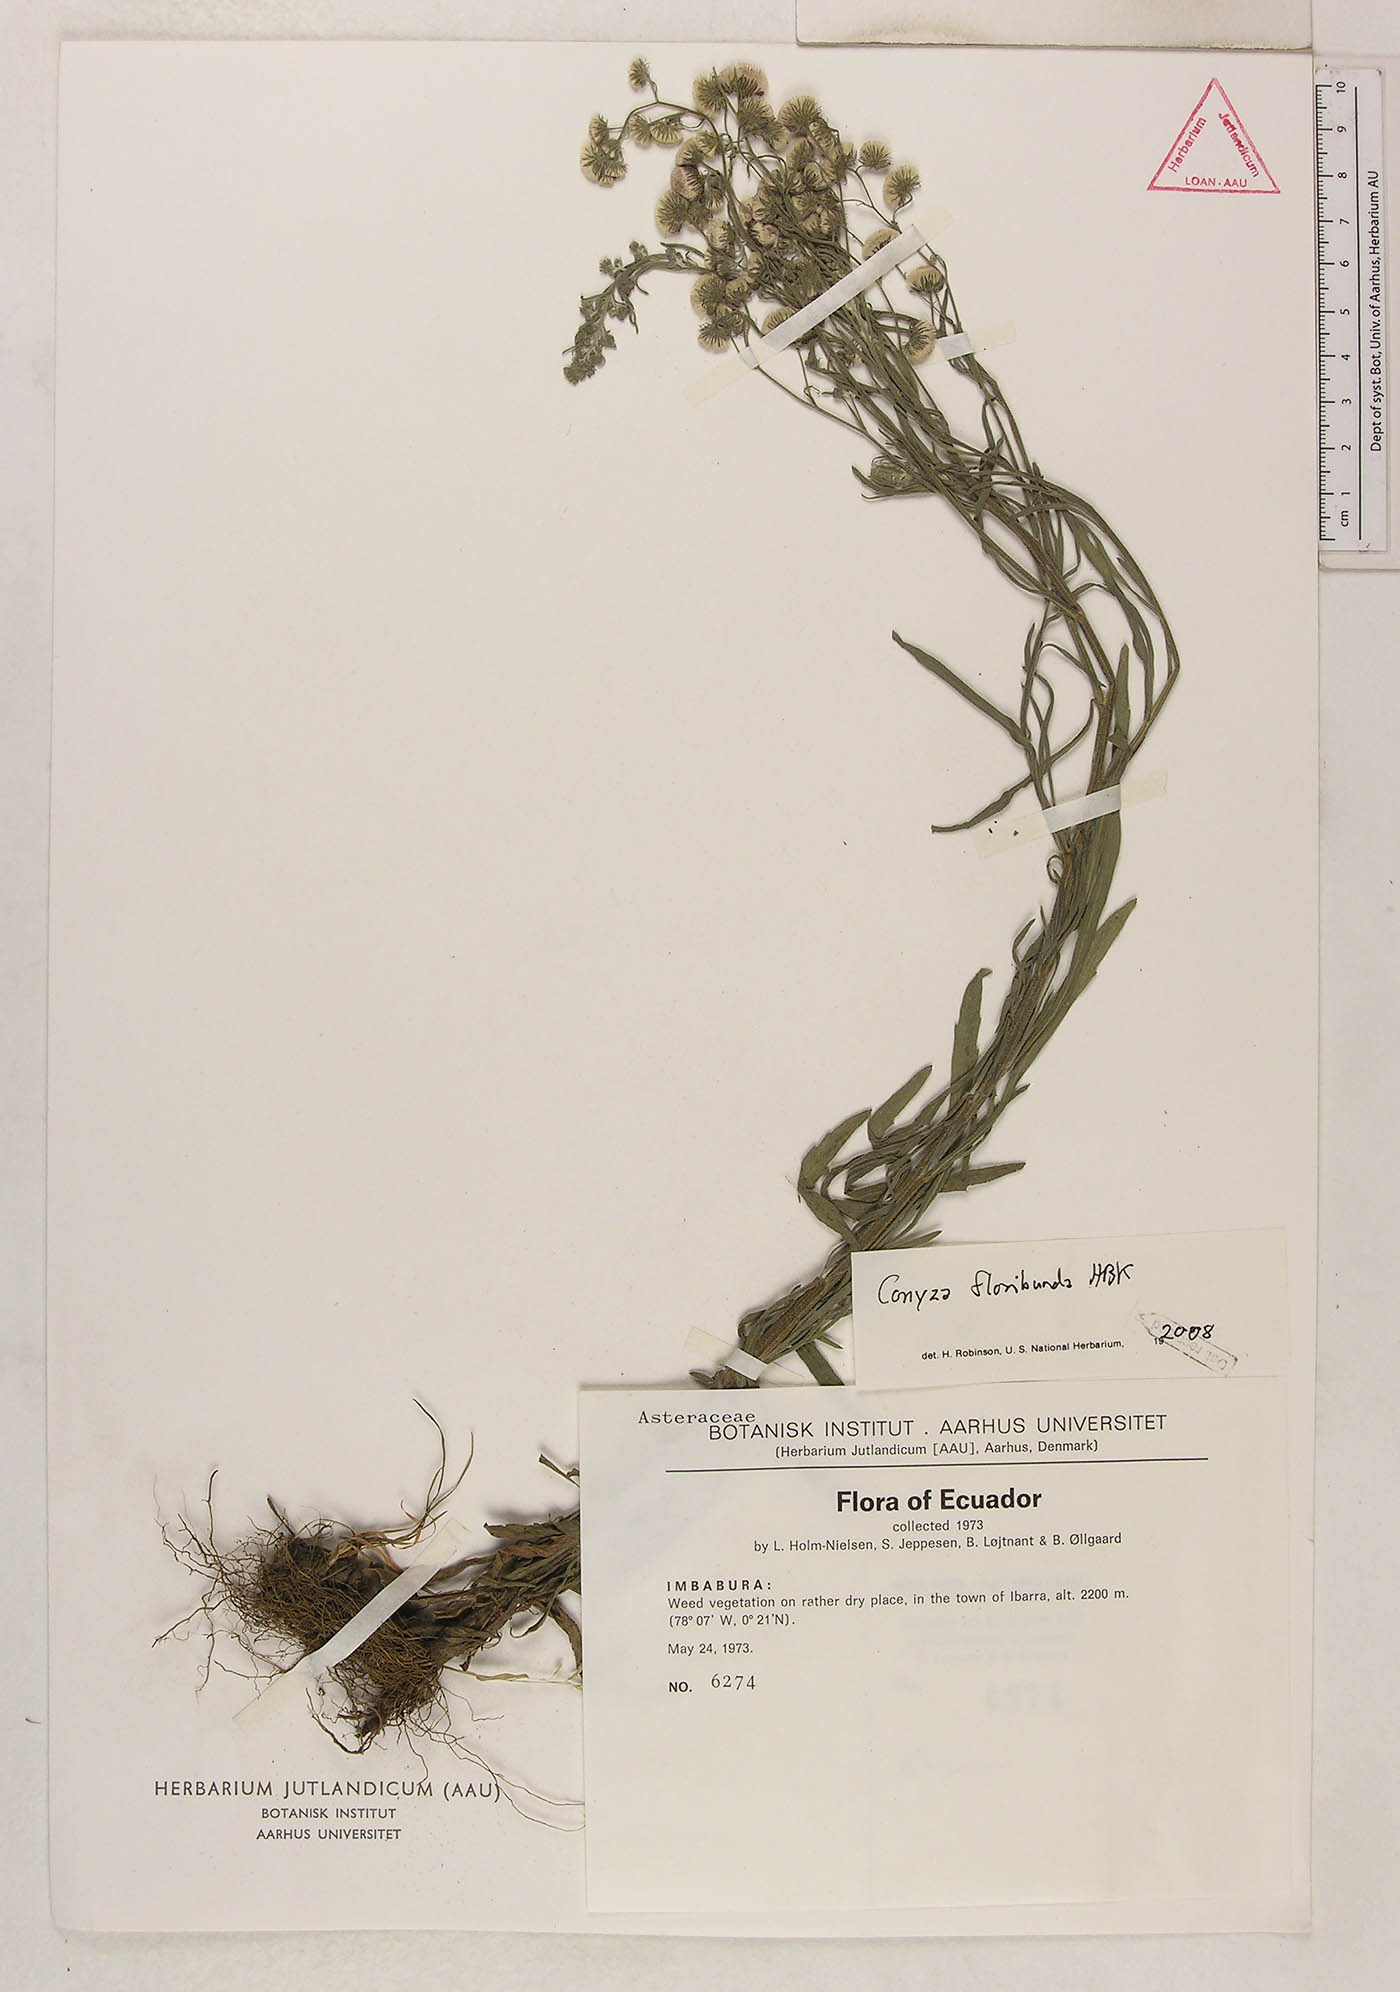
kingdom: Plantae
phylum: Tracheophyta
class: Magnoliopsida
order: Asterales
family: Asteraceae
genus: Erigeron
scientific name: Erigeron floribundus
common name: Bilbao fleabane
